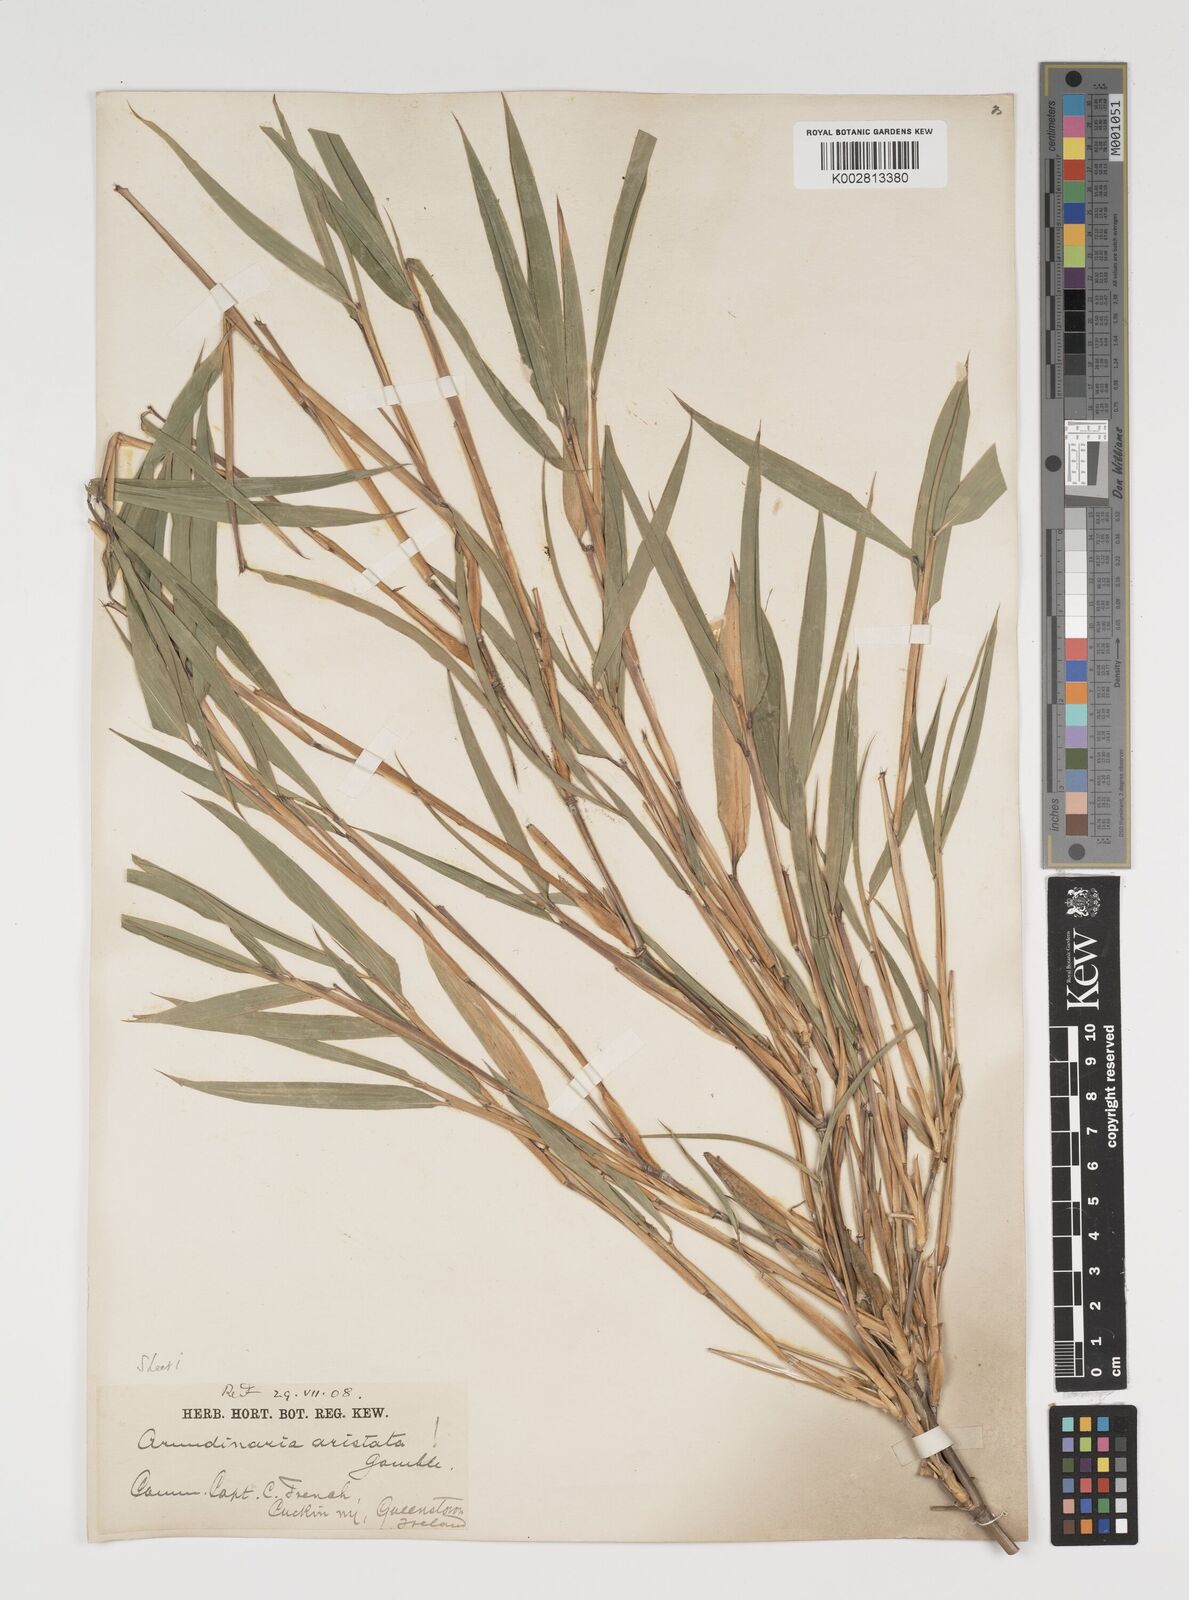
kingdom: Plantae
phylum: Tracheophyta
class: Liliopsida
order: Poales
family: Poaceae
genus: Thamnocalamus
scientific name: Thamnocalamus spathiflorus
